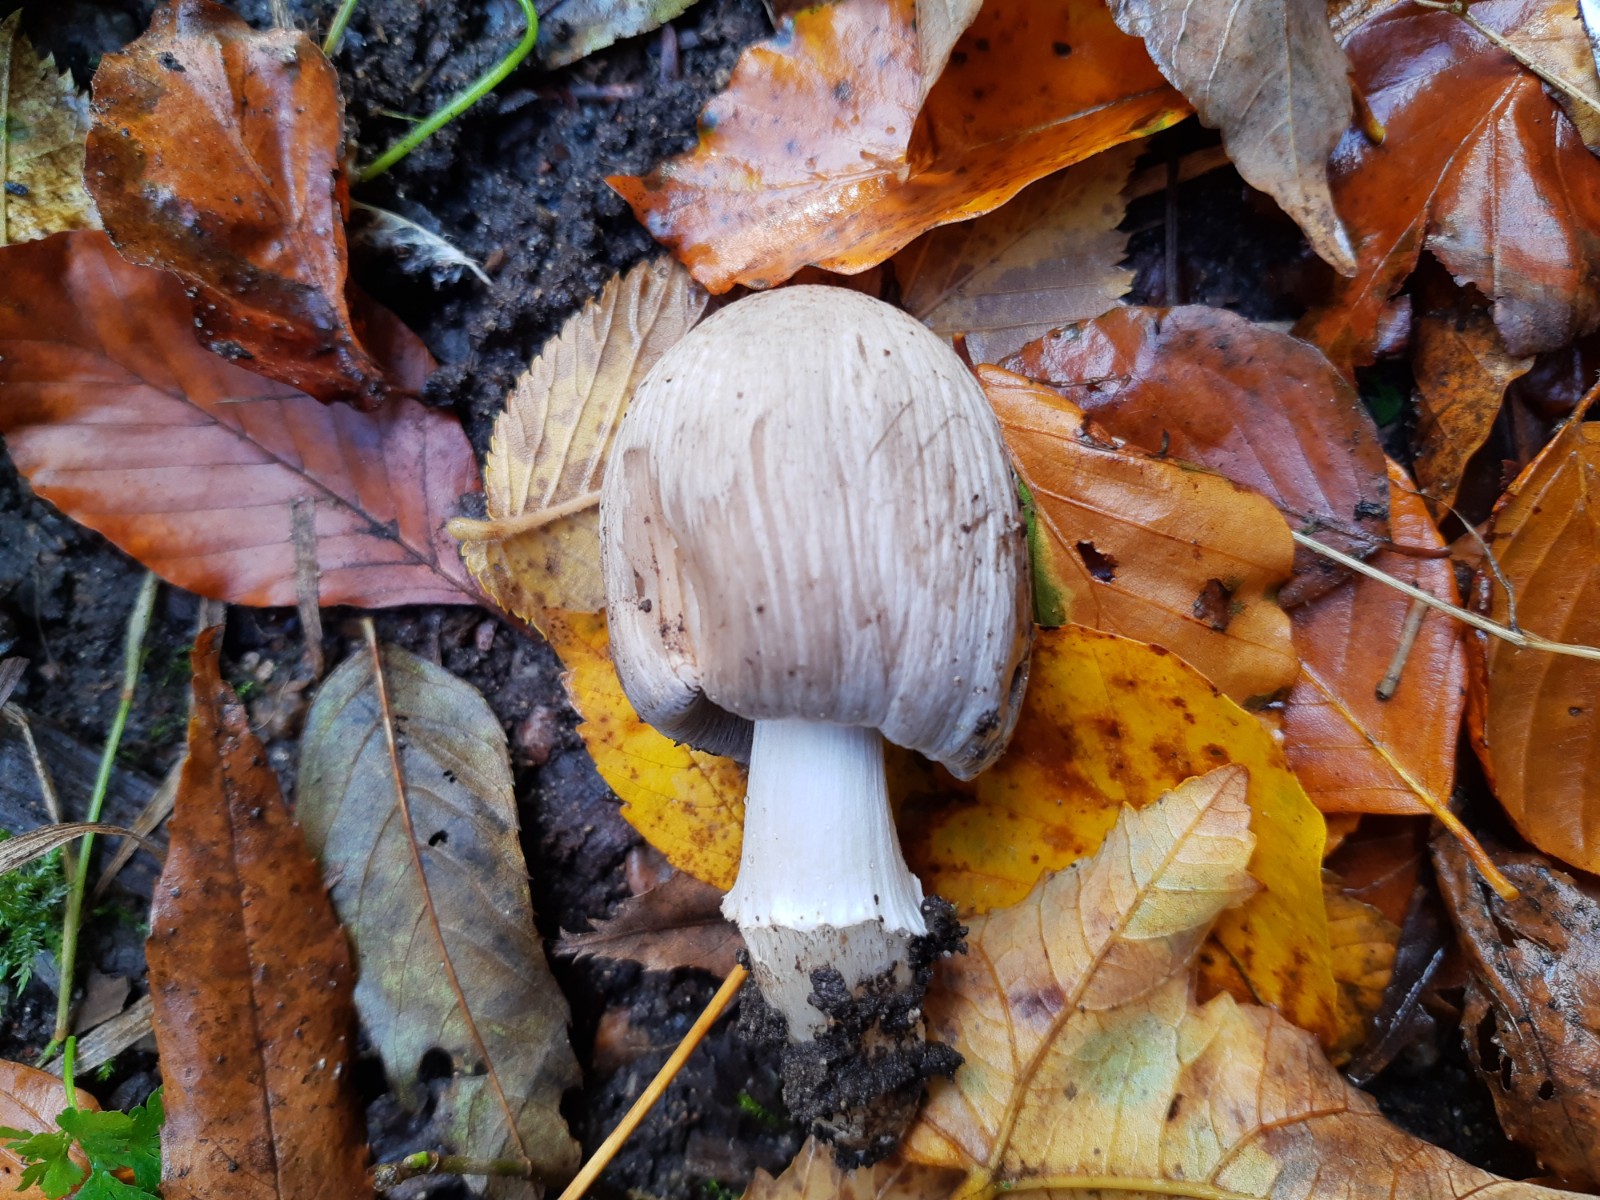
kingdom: Fungi
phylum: Basidiomycota
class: Agaricomycetes
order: Agaricales
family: Psathyrellaceae
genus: Coprinopsis
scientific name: Coprinopsis atramentaria
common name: almindelig blækhat
